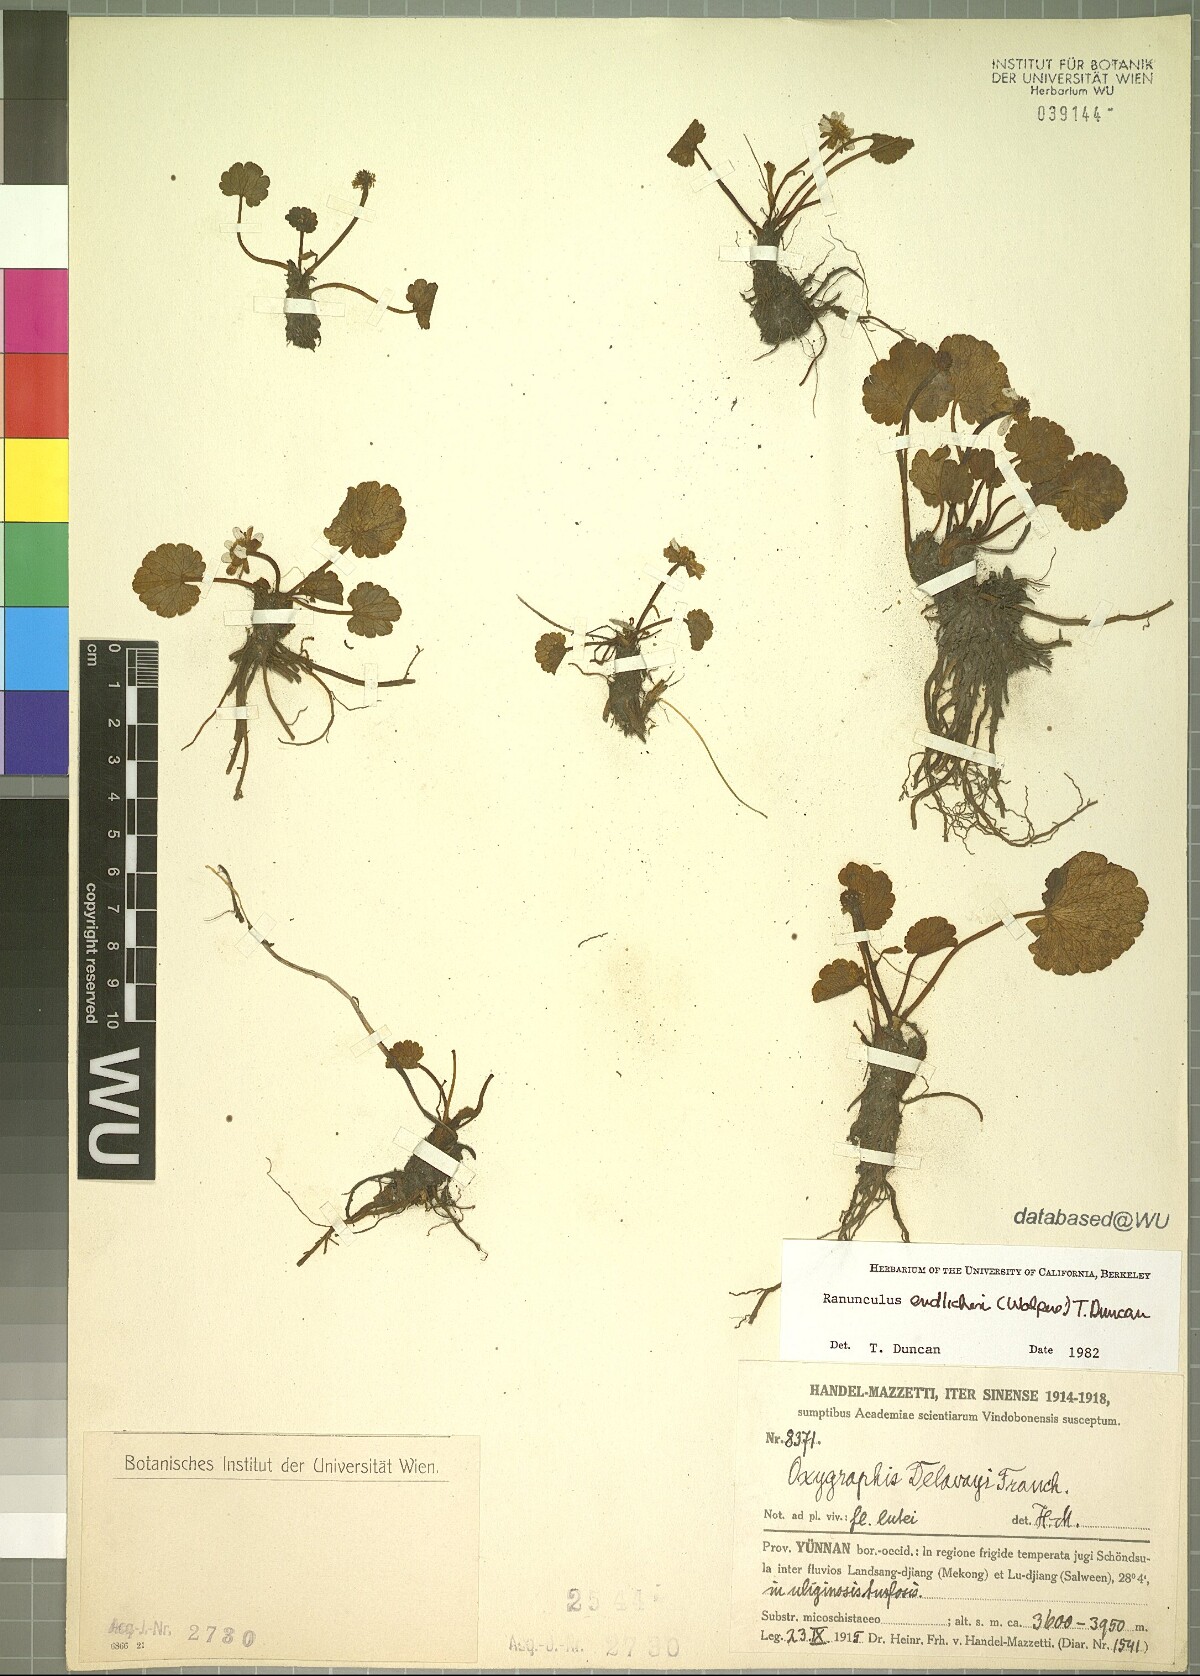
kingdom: Plantae
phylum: Tracheophyta
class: Magnoliopsida
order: Ranunculales
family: Ranunculaceae
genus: Oxygraphis
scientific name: Oxygraphis delavayi
